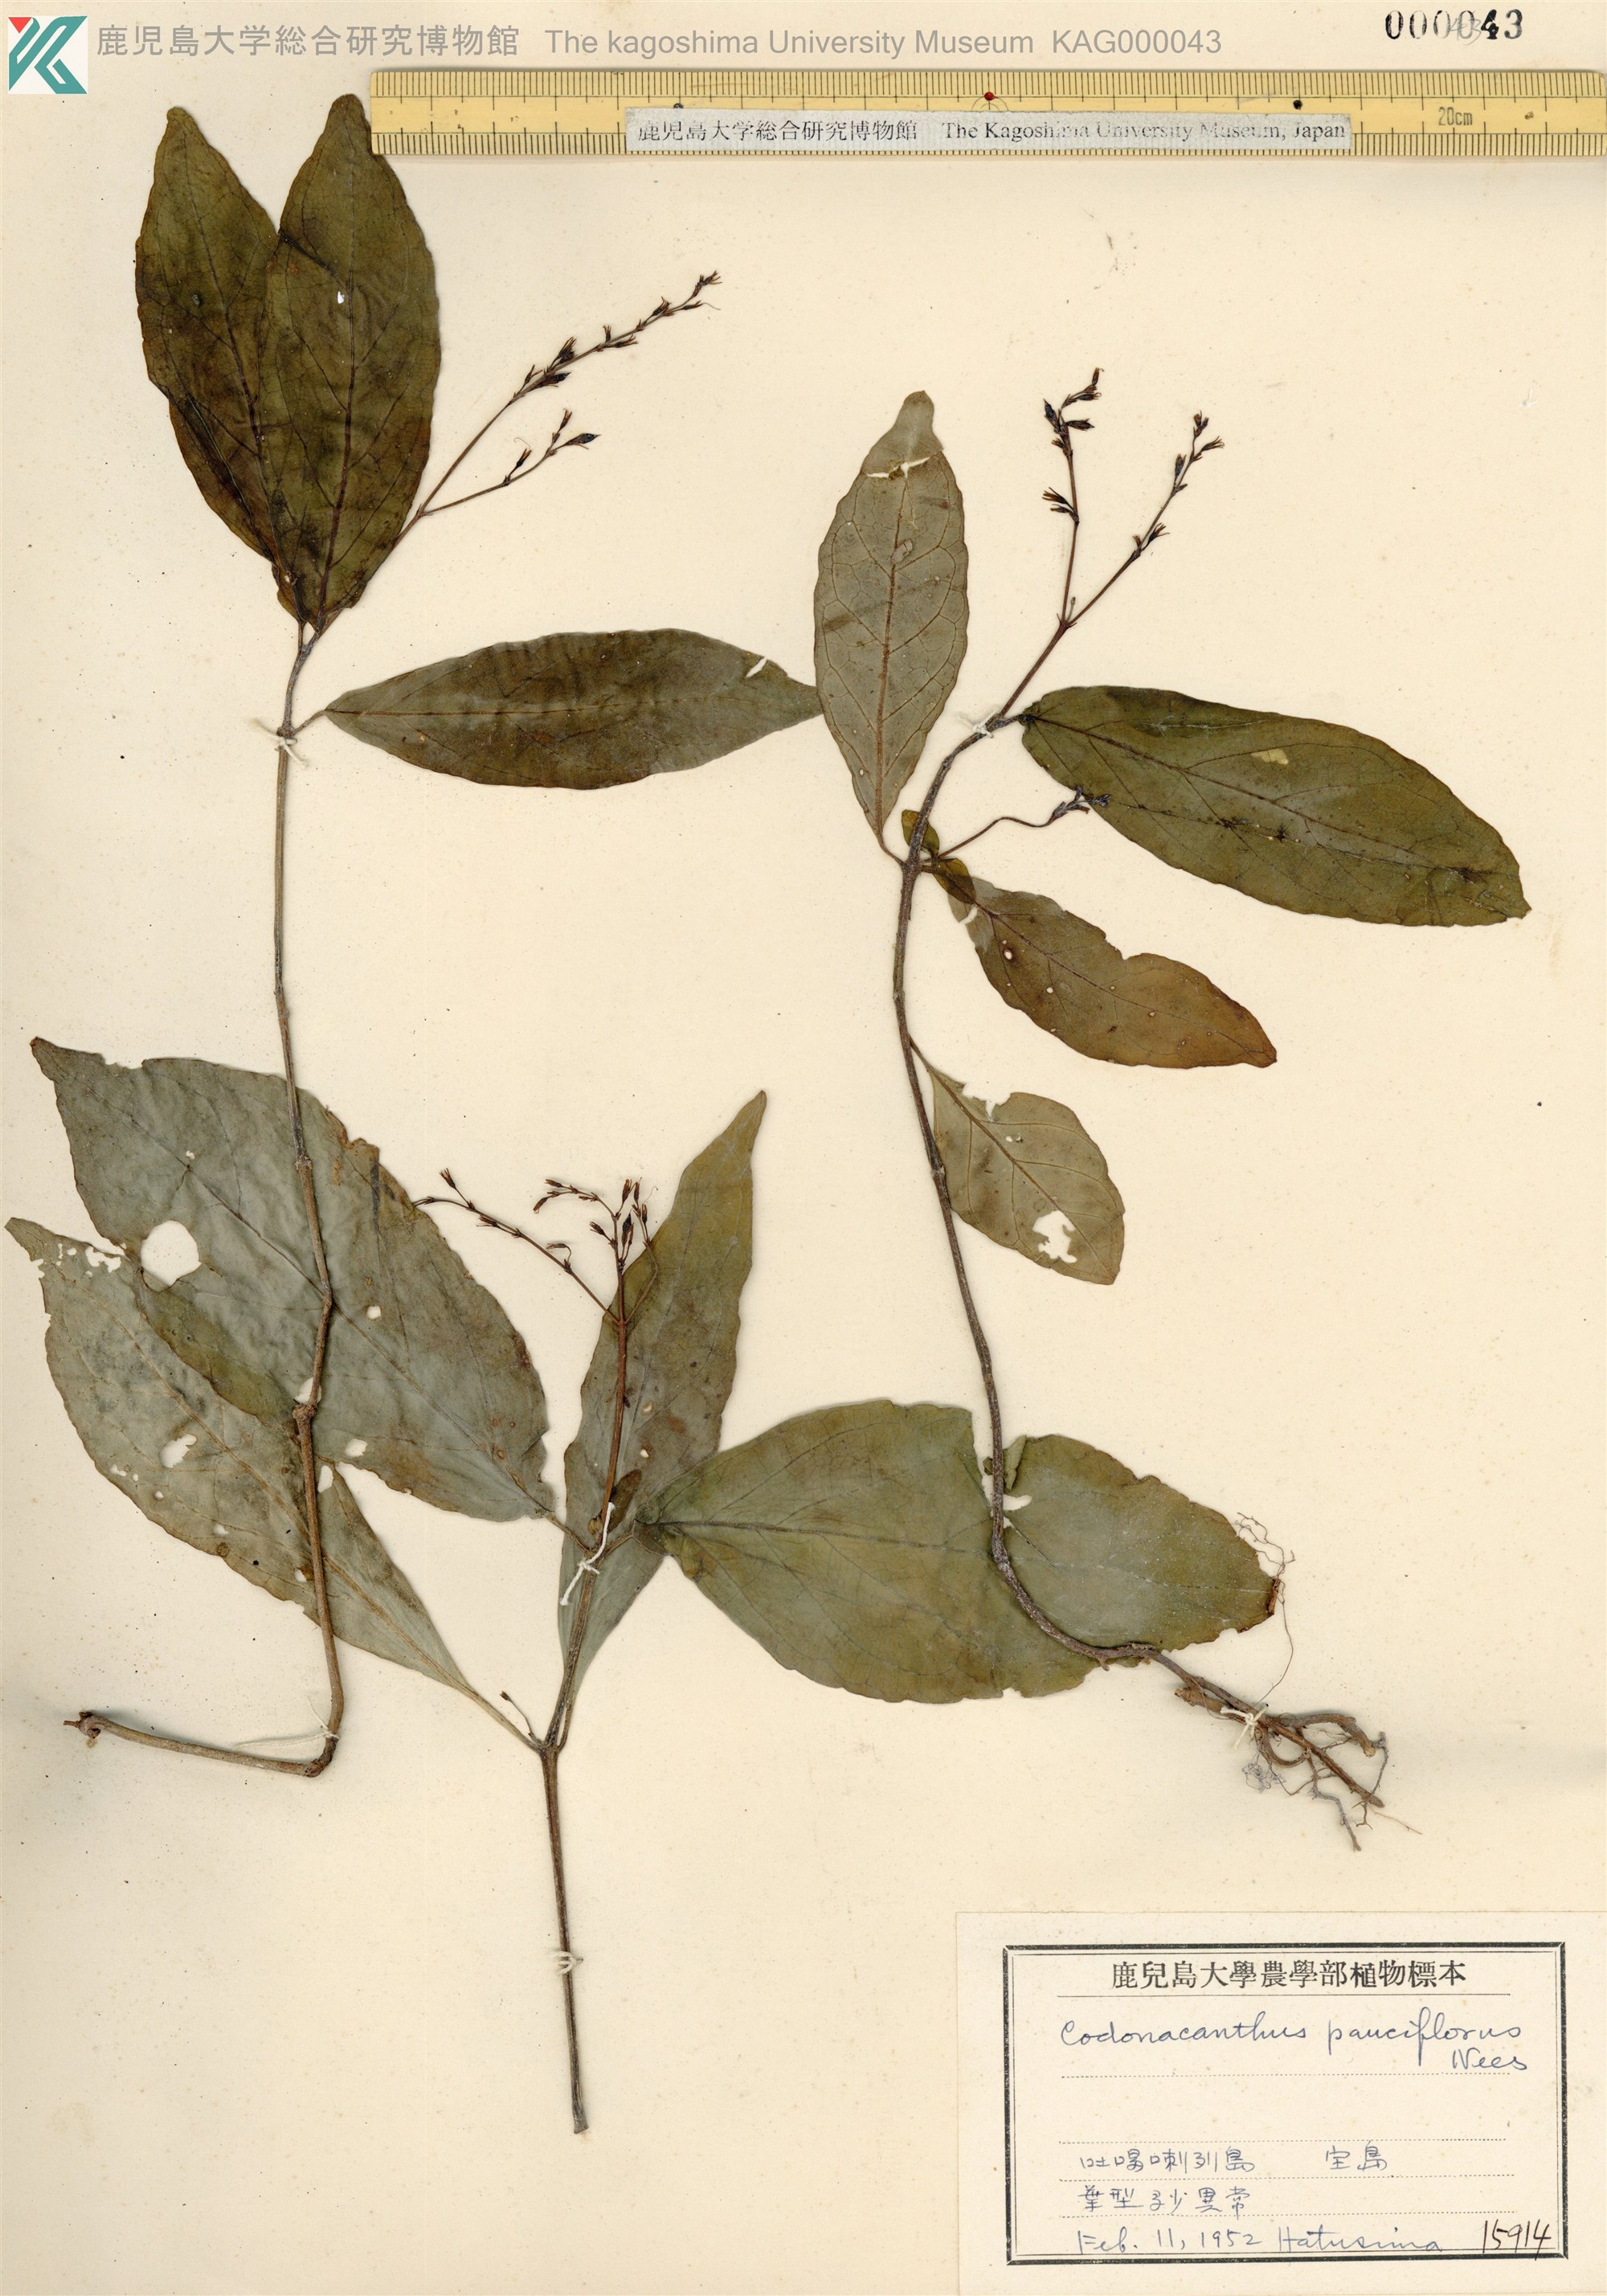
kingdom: Plantae
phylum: Tracheophyta
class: Magnoliopsida
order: Lamiales
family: Acanthaceae
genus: Codonacanthus
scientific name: Codonacanthus pauciflorus
